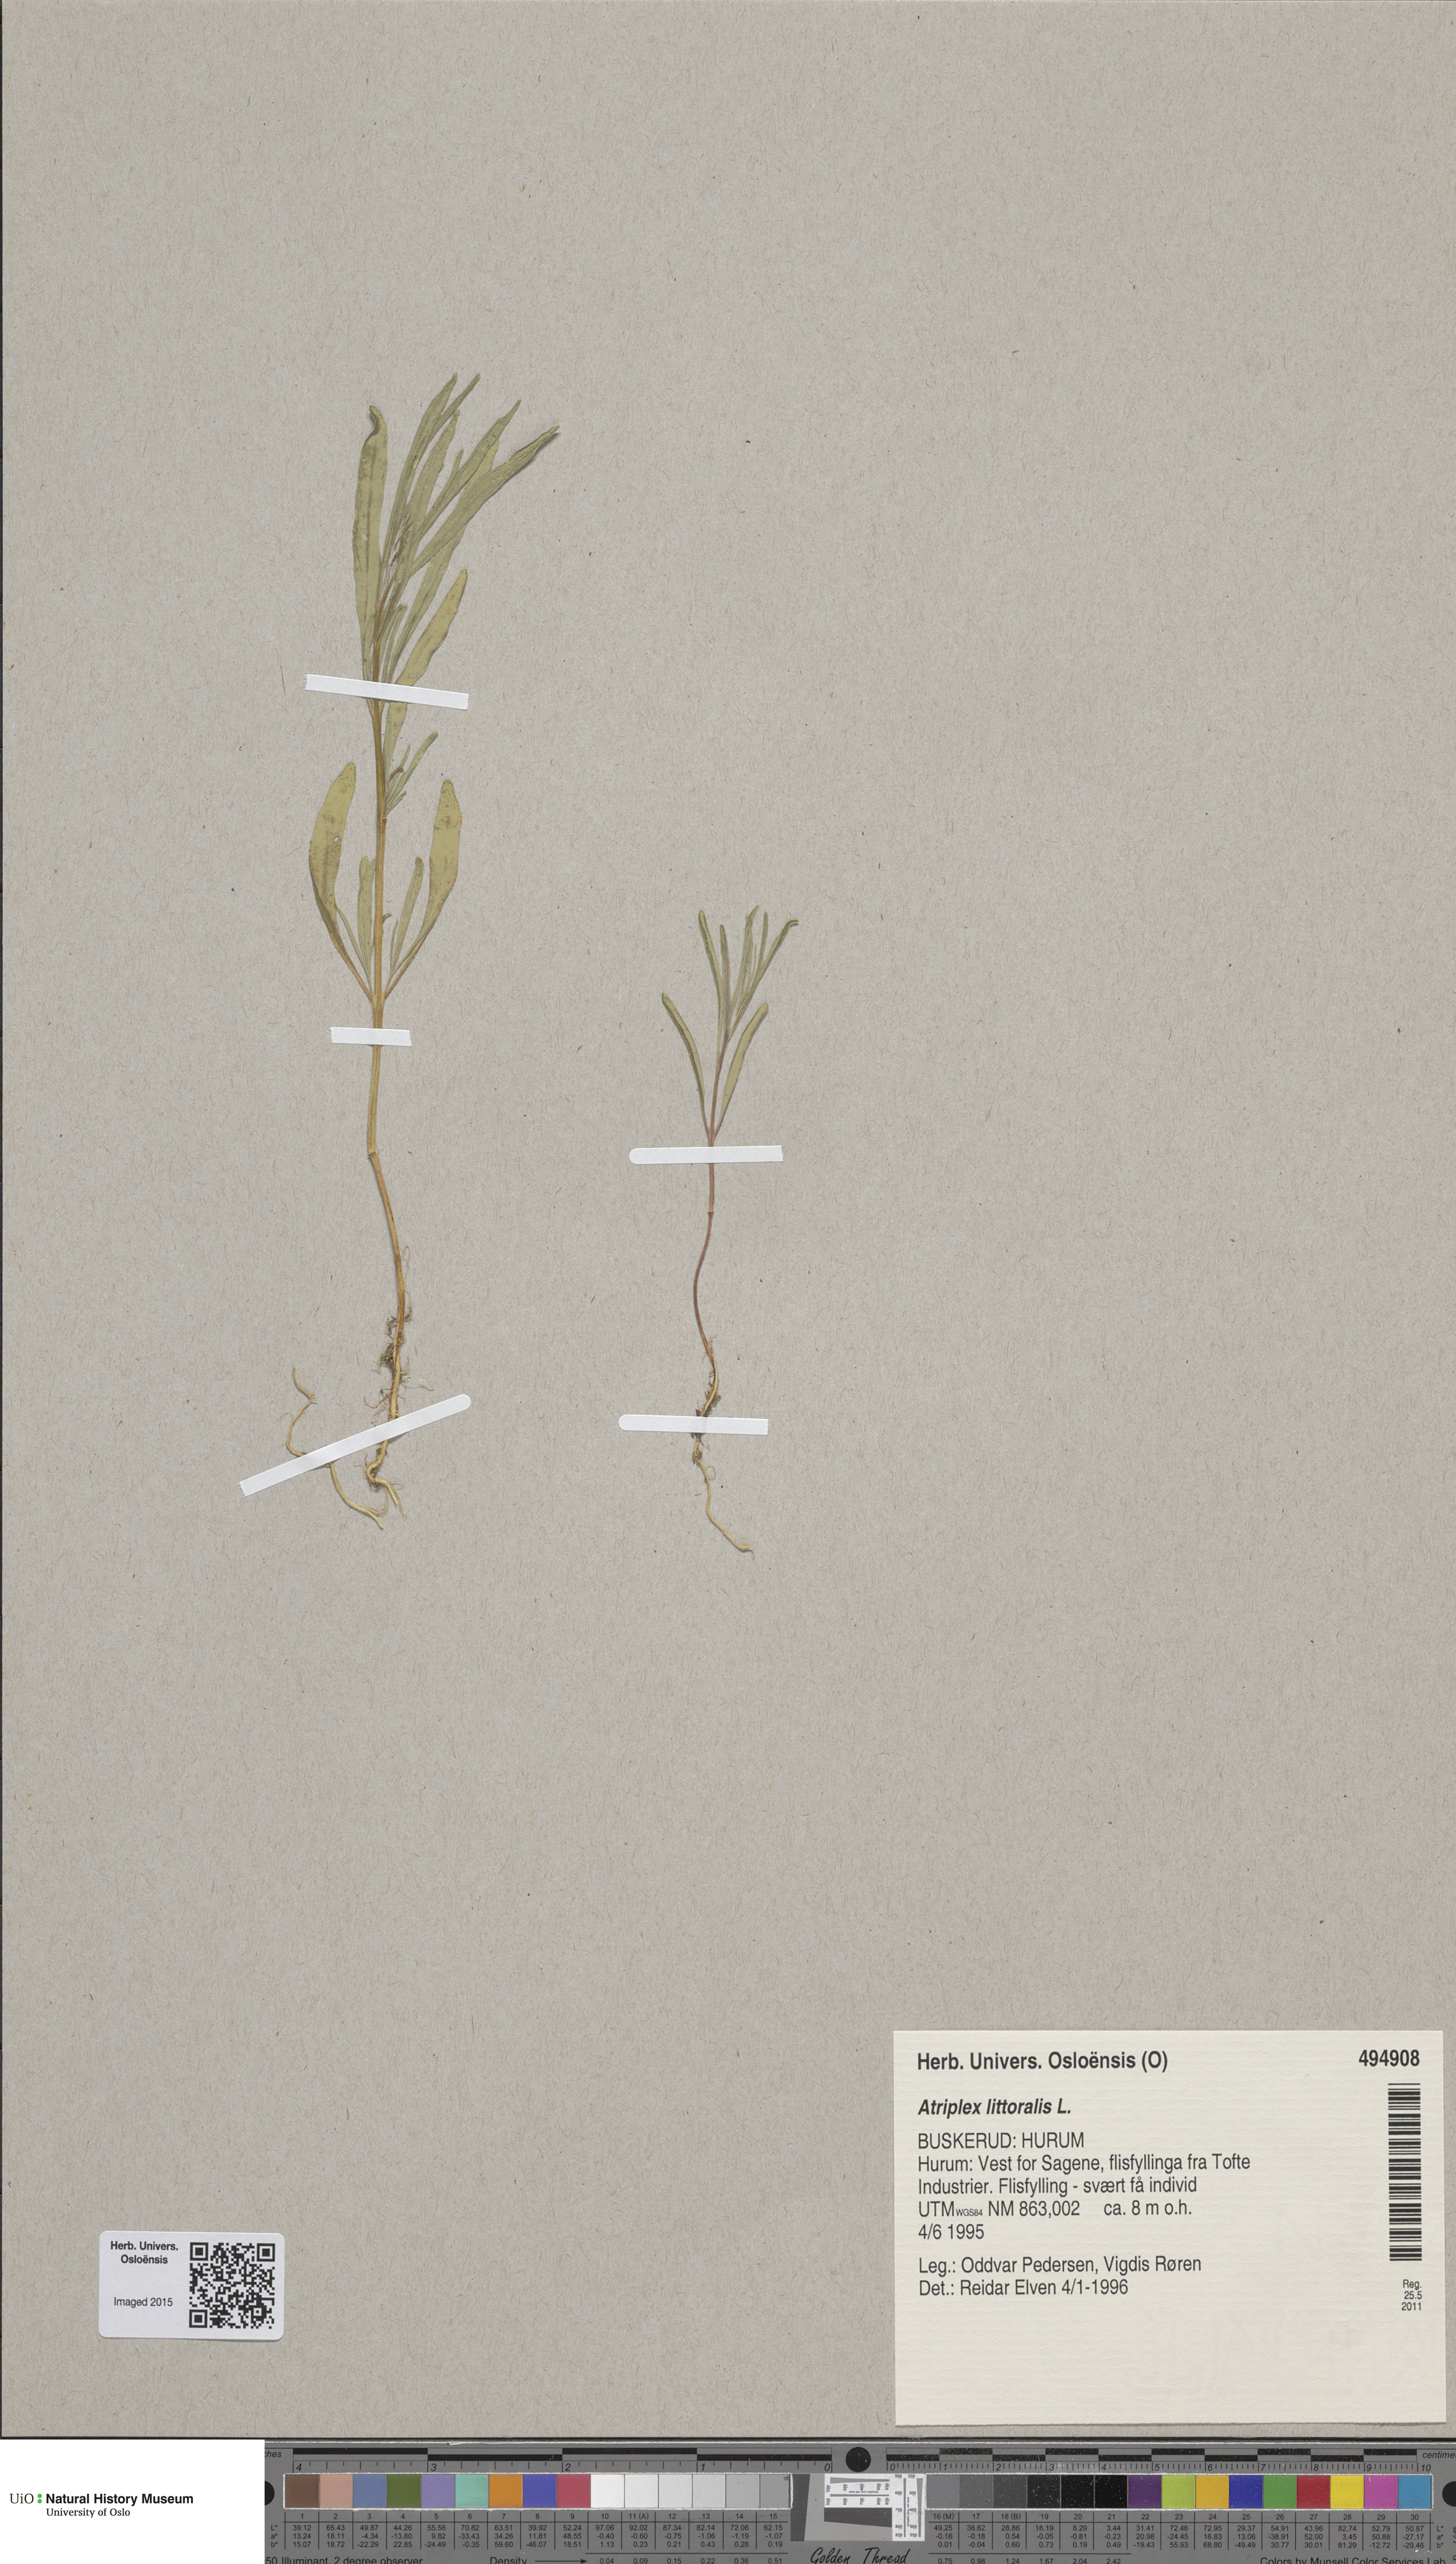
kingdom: Plantae
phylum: Tracheophyta
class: Magnoliopsida
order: Caryophyllales
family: Amaranthaceae
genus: Atriplex
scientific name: Atriplex littoralis
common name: Grass-leaved orache
